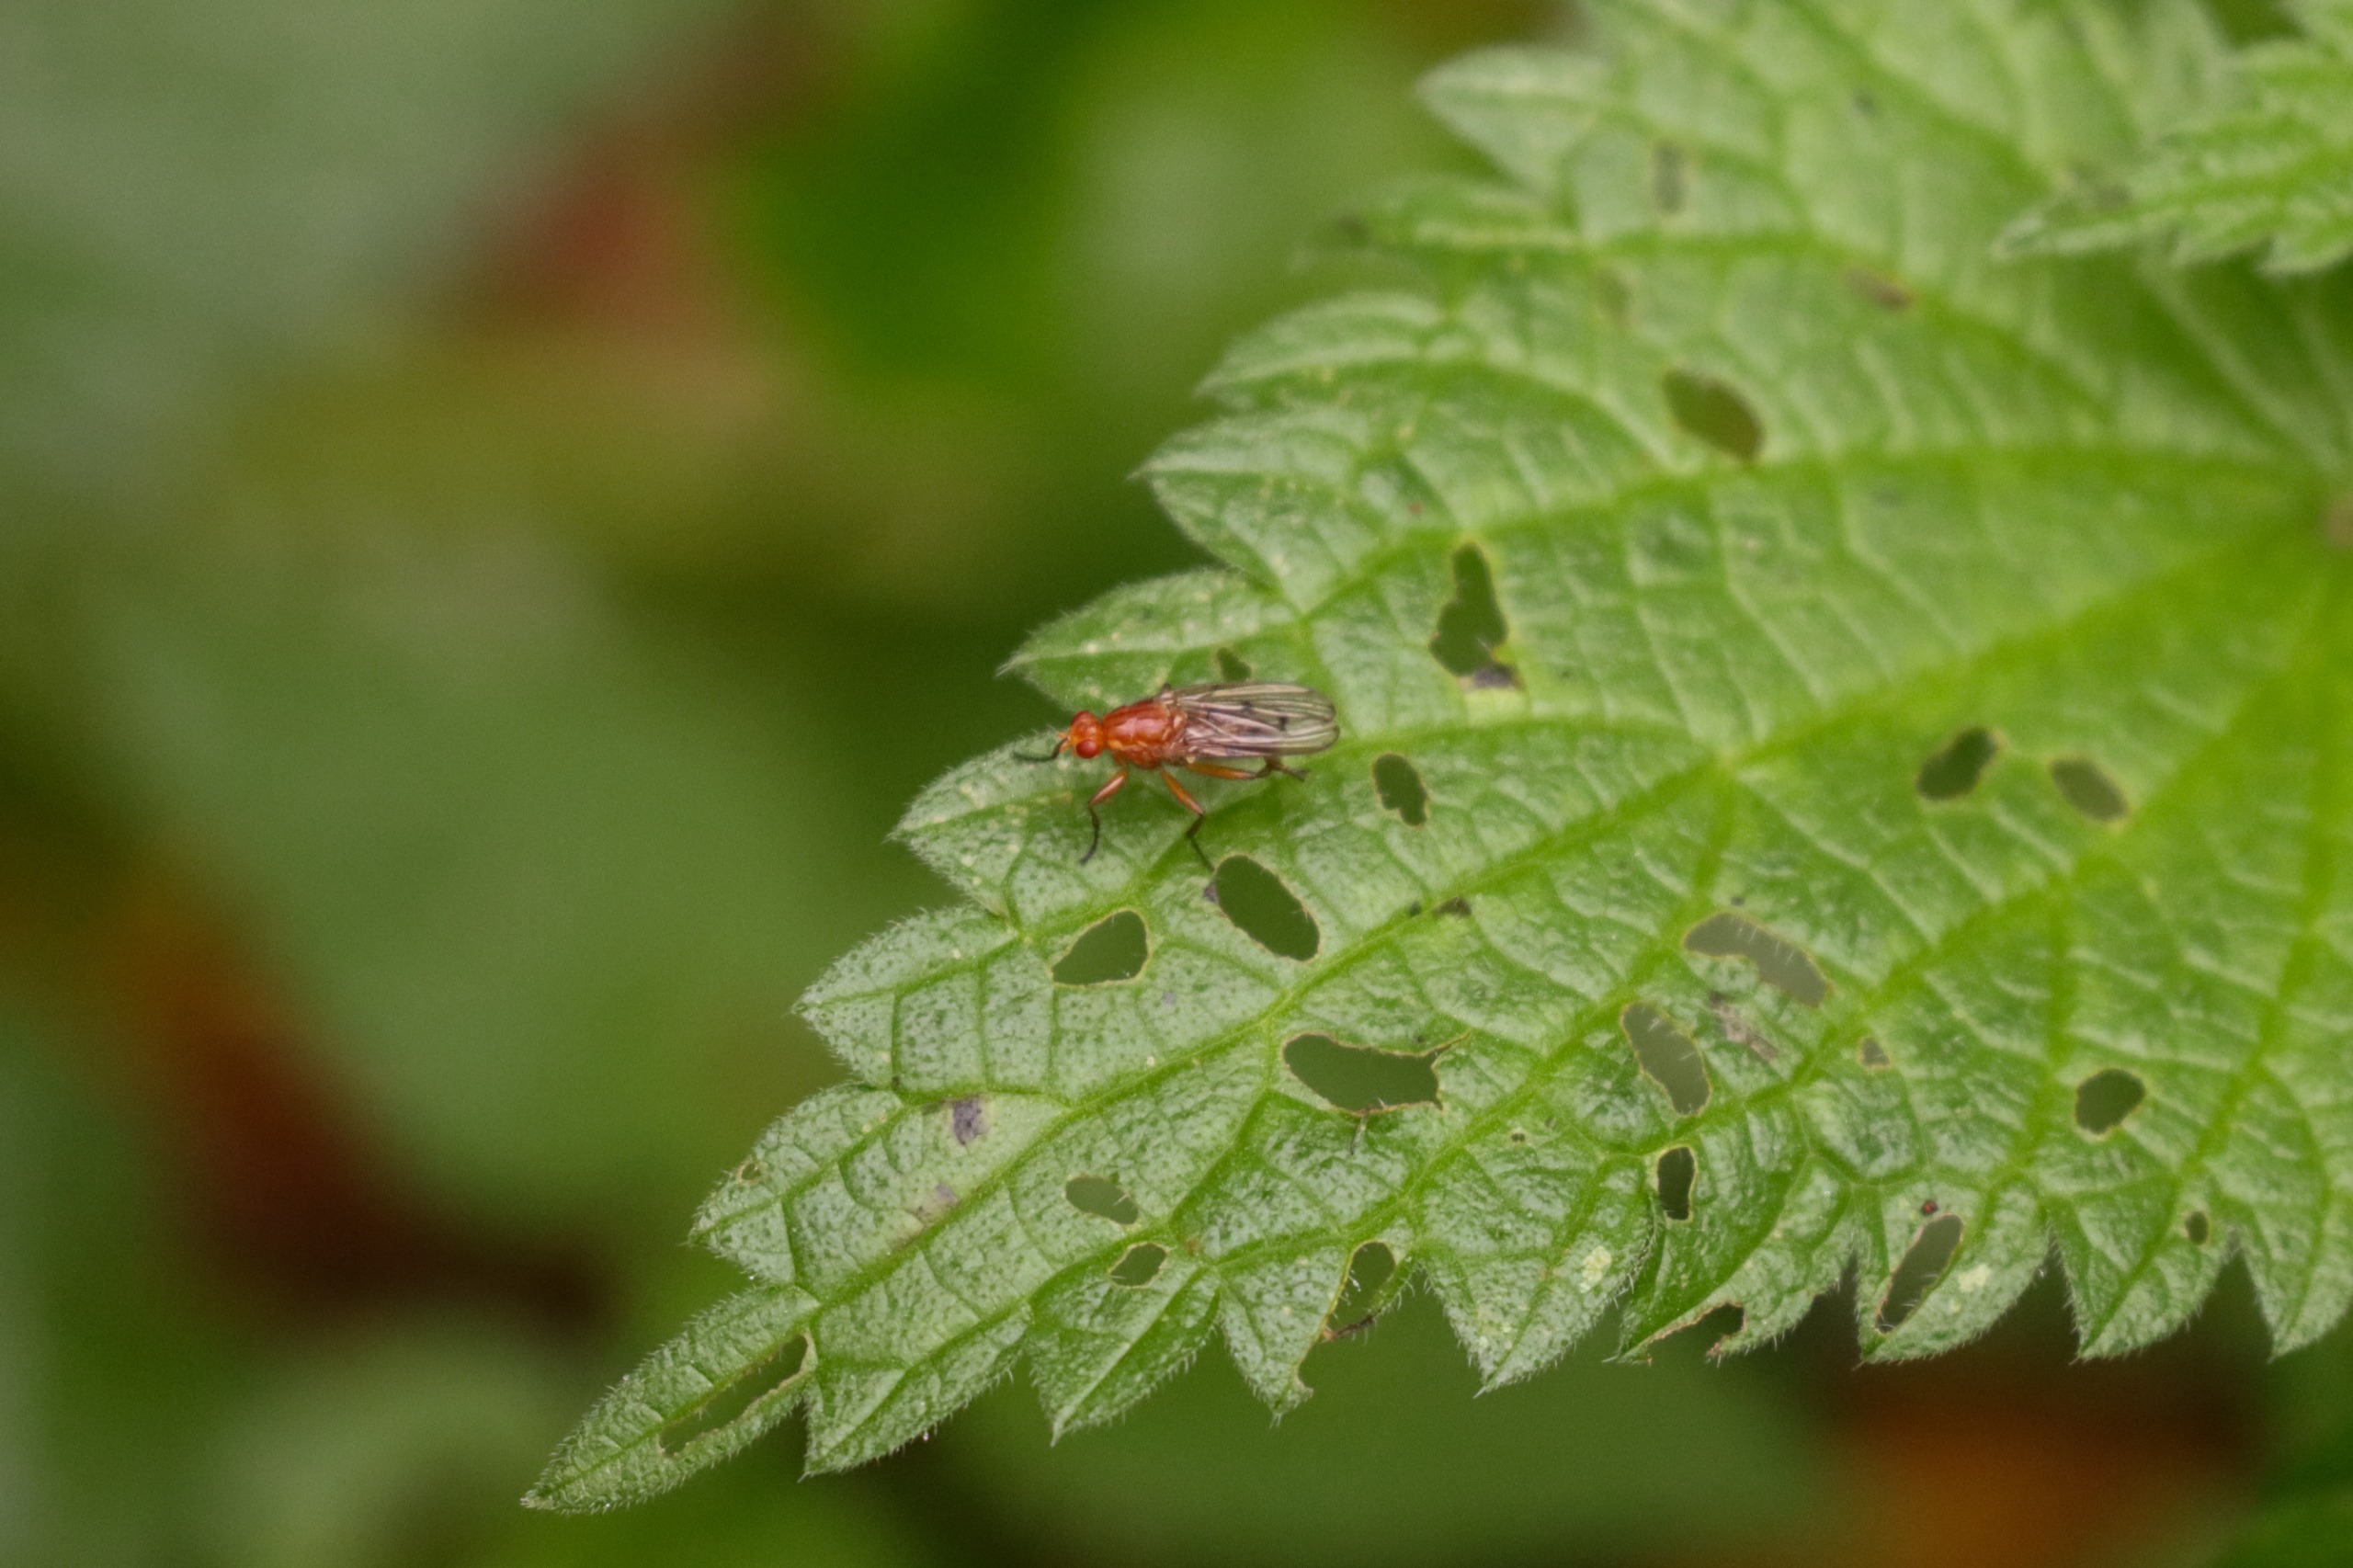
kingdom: Animalia
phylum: Arthropoda
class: Insecta
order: Diptera
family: Dryomyzidae
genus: Dryomyza
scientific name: Dryomyza anilis
